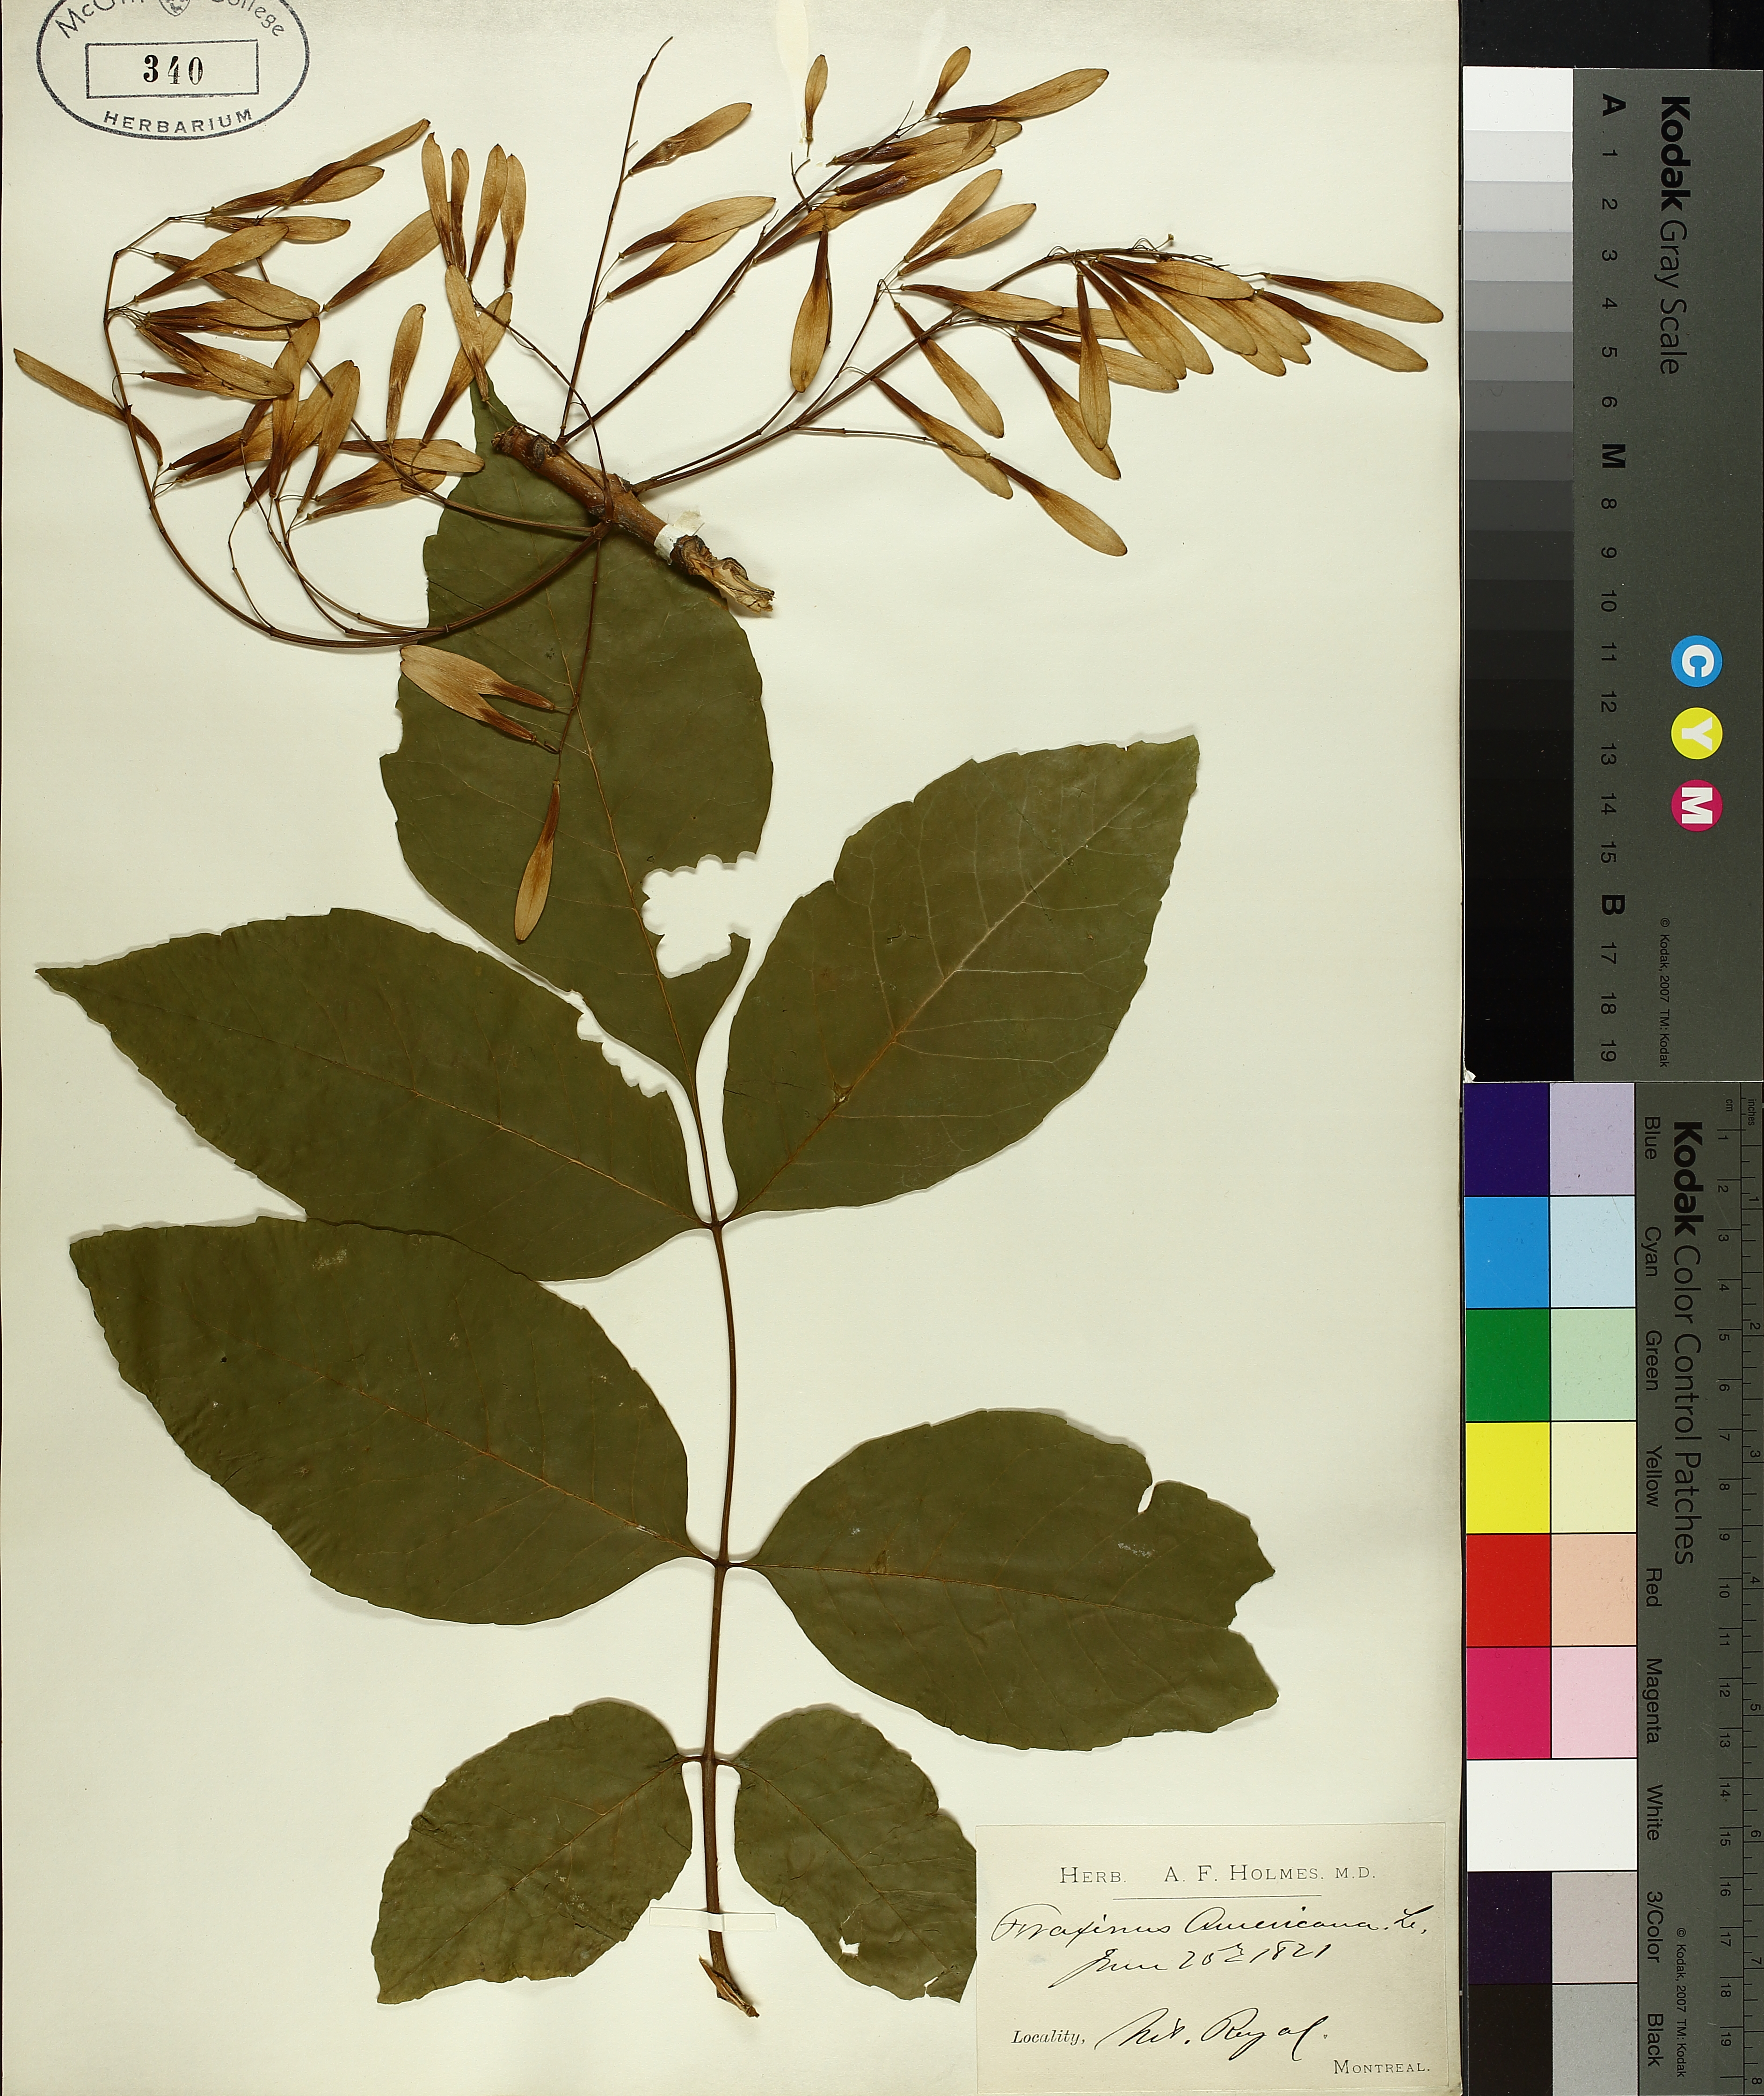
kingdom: Plantae
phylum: Tracheophyta
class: Magnoliopsida
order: Lamiales
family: Oleaceae
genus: Fraxinus
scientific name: Fraxinus americana
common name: White ash
